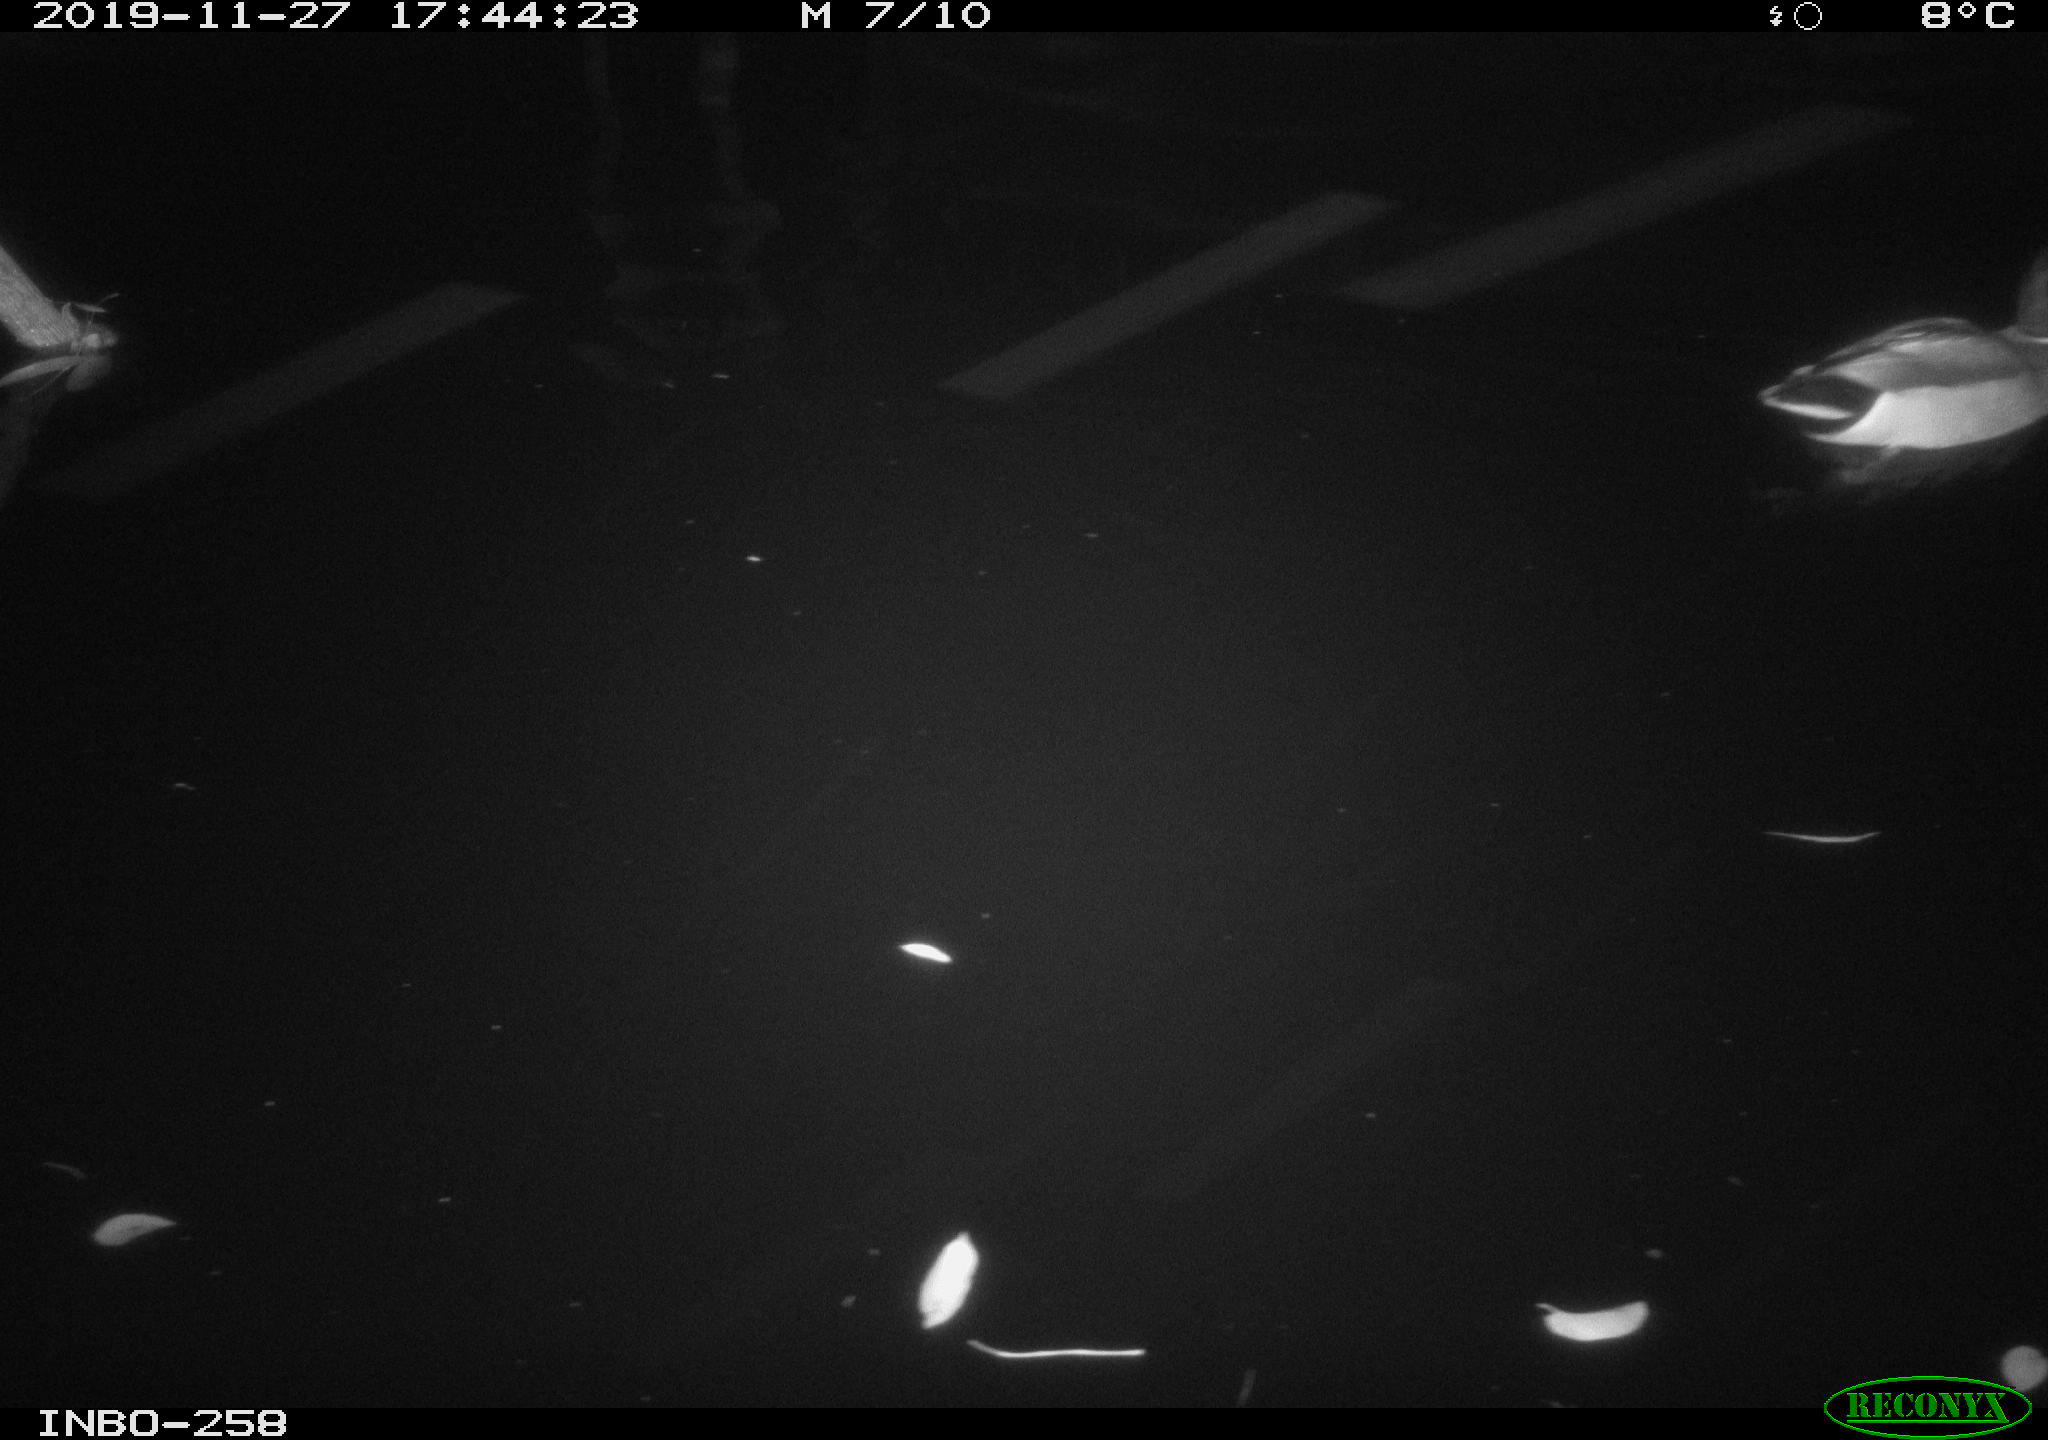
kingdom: Animalia
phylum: Chordata
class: Aves
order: Anseriformes
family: Anatidae
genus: Anas
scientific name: Anas platyrhynchos
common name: Mallard
